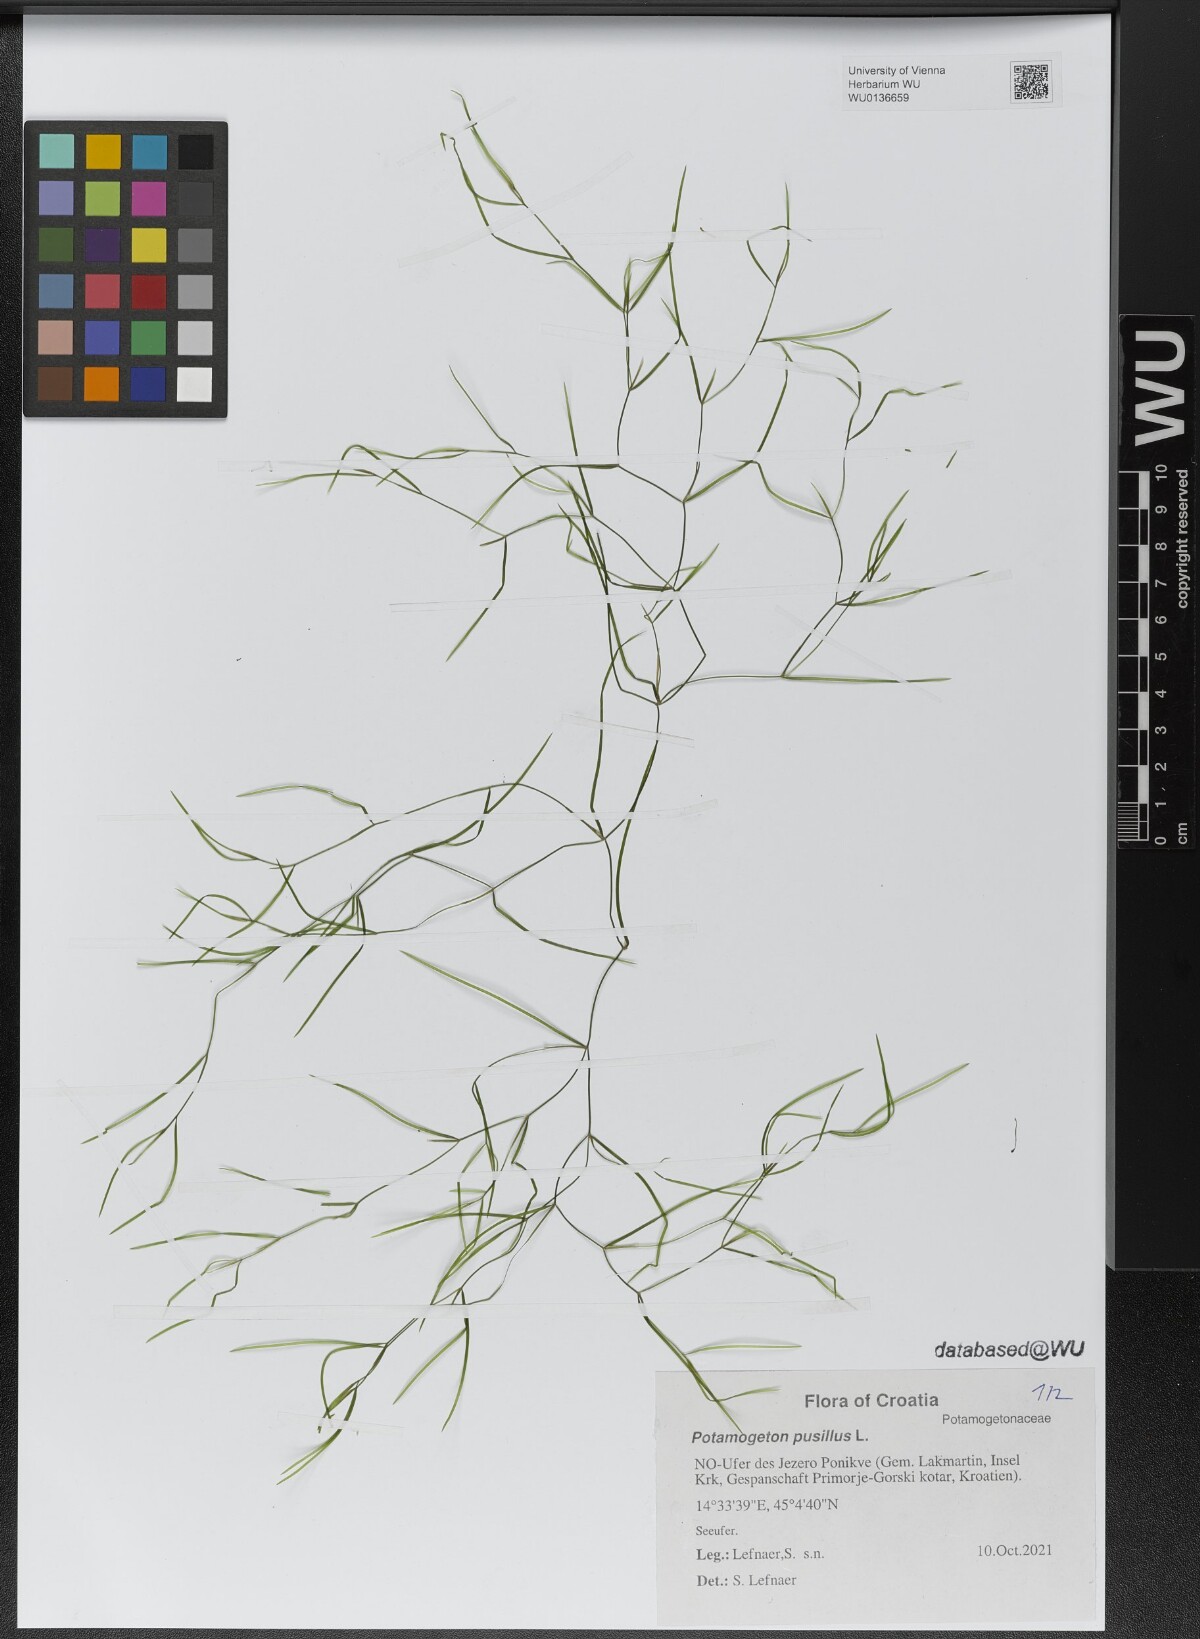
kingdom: Plantae
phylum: Tracheophyta
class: Liliopsida
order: Alismatales
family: Potamogetonaceae
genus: Potamogeton
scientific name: Potamogeton pusillus
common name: Lesser pondweed
